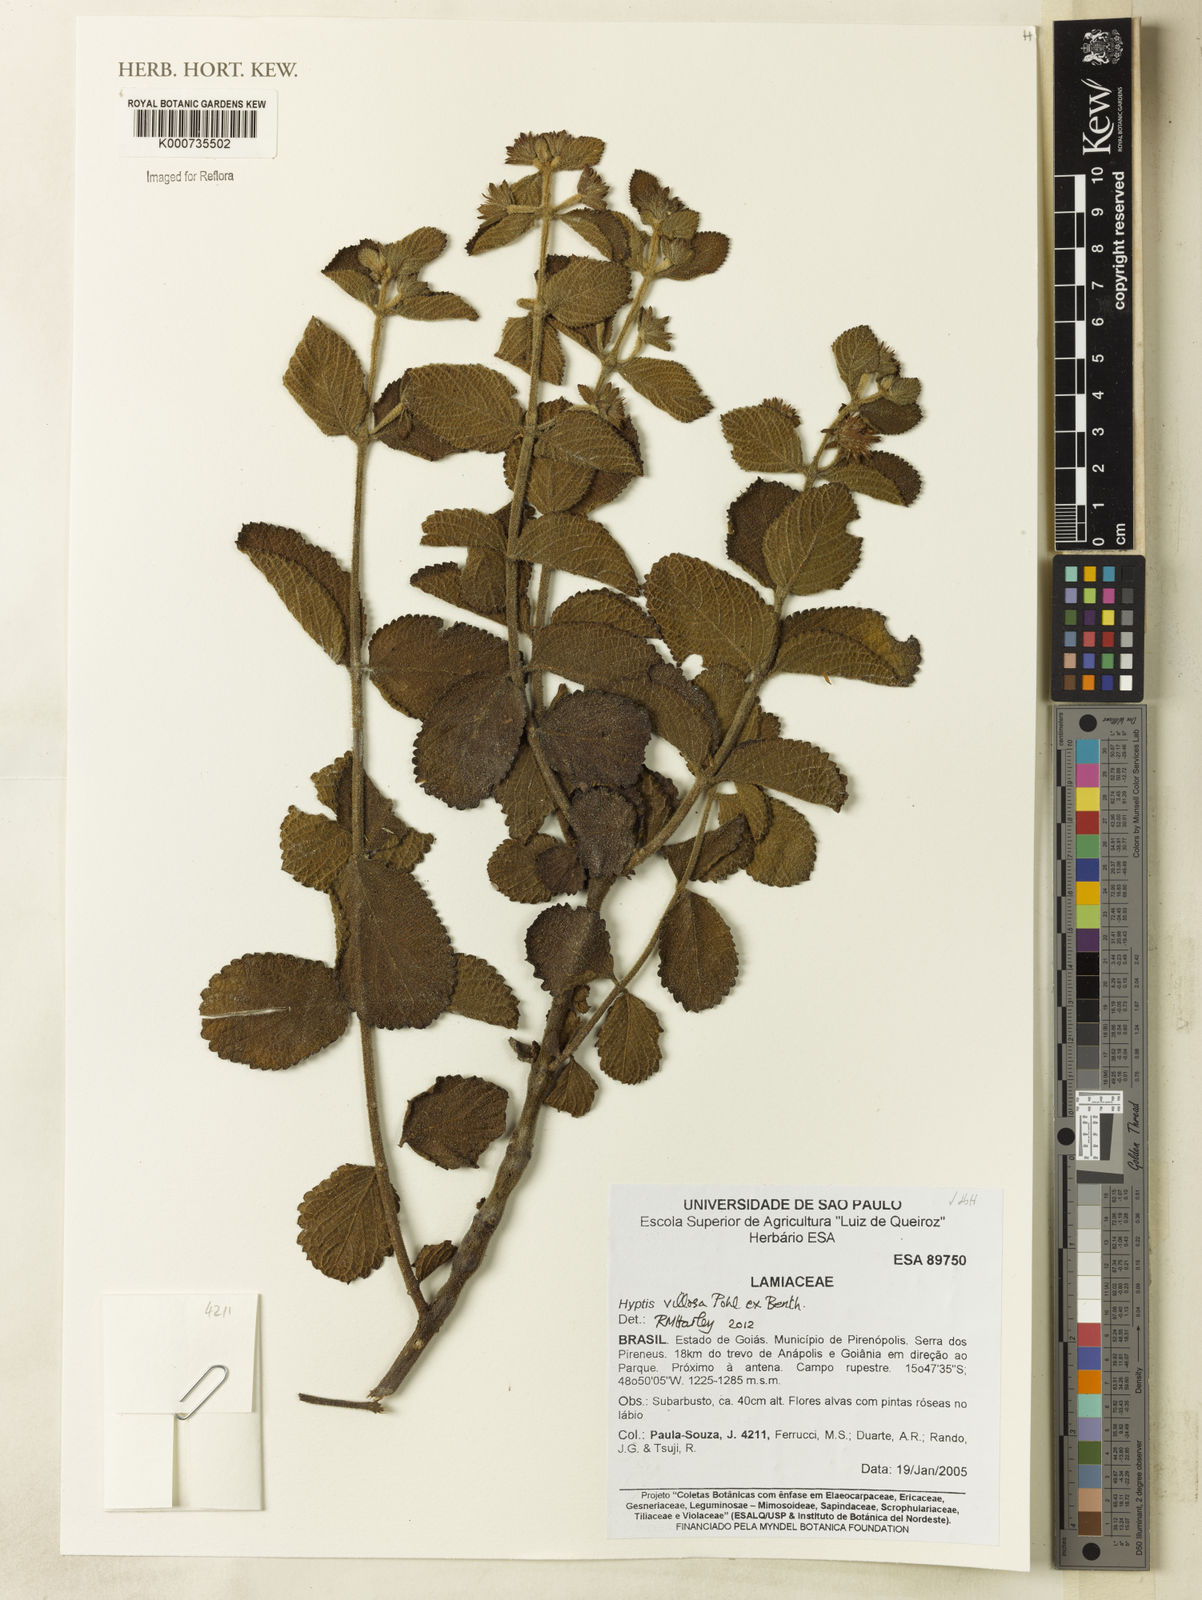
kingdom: Plantae
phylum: Tracheophyta
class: Magnoliopsida
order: Lamiales
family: Lamiaceae
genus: Hyptis
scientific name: Hyptis villosa
